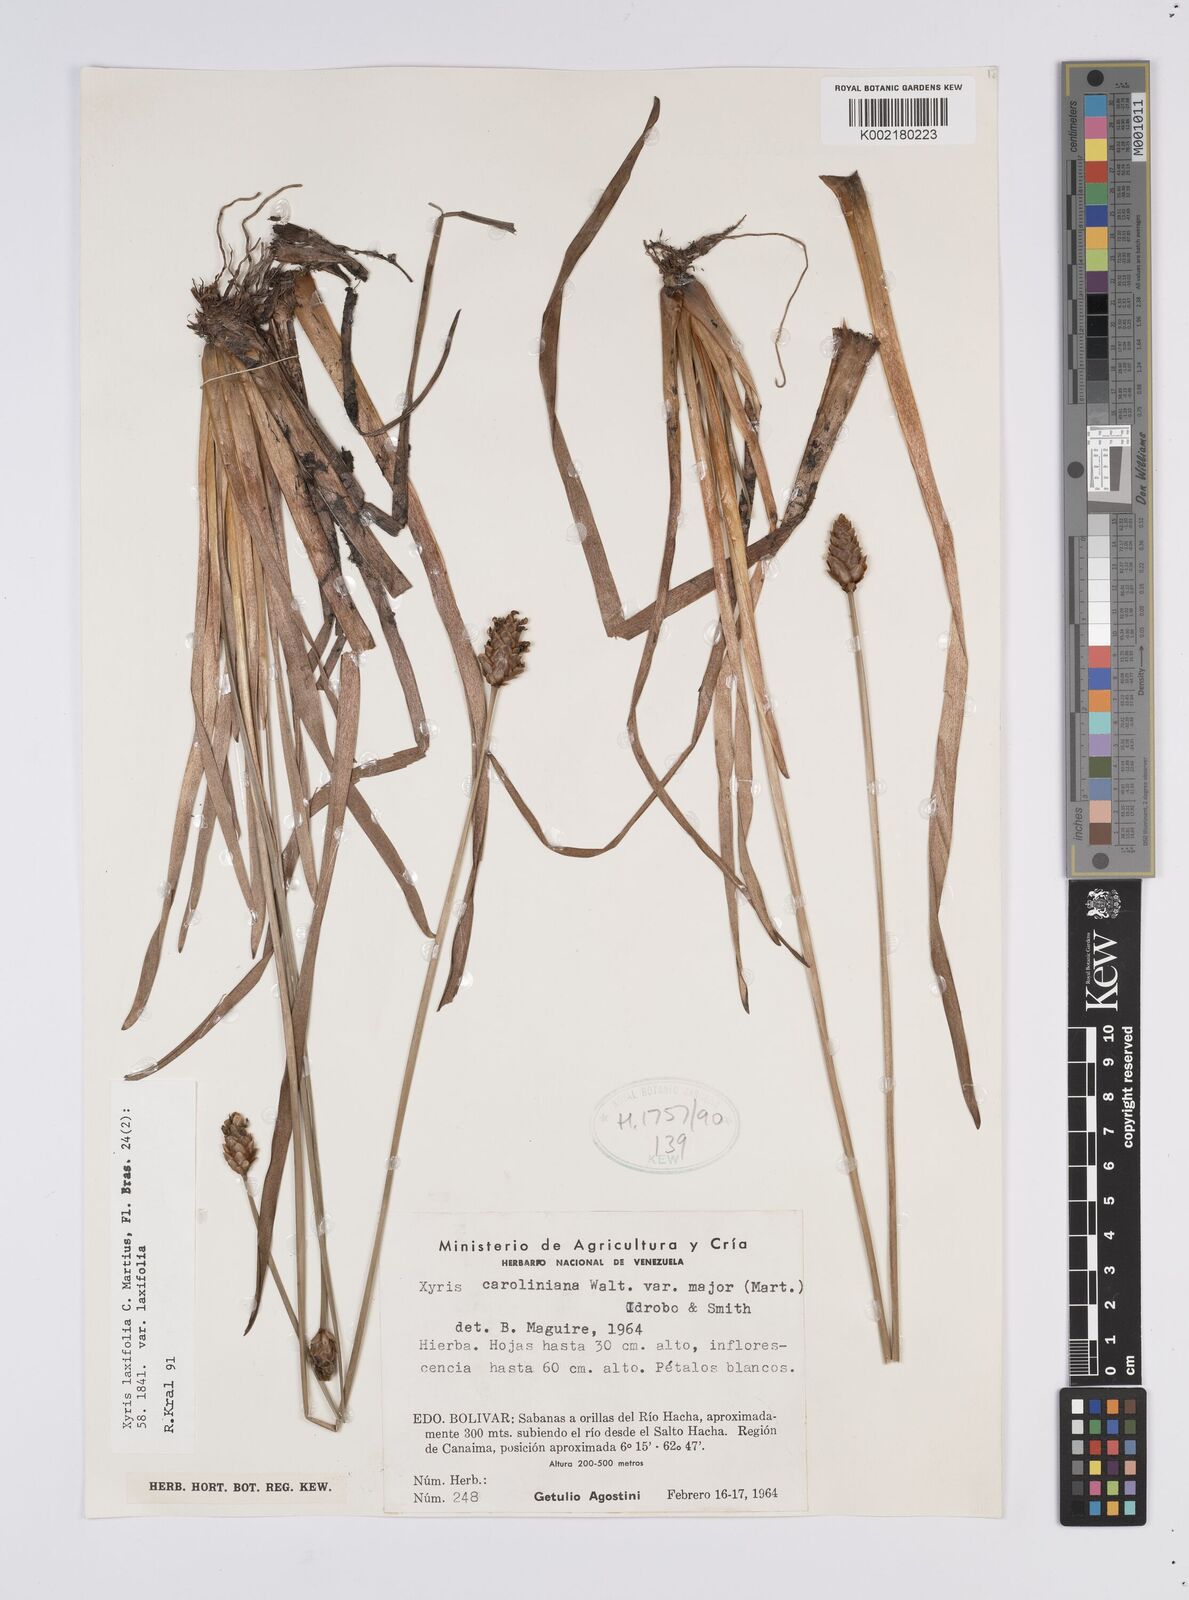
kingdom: Plantae
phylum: Tracheophyta
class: Liliopsida
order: Poales
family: Xyridaceae
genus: Xyris
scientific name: Xyris laxiflora
